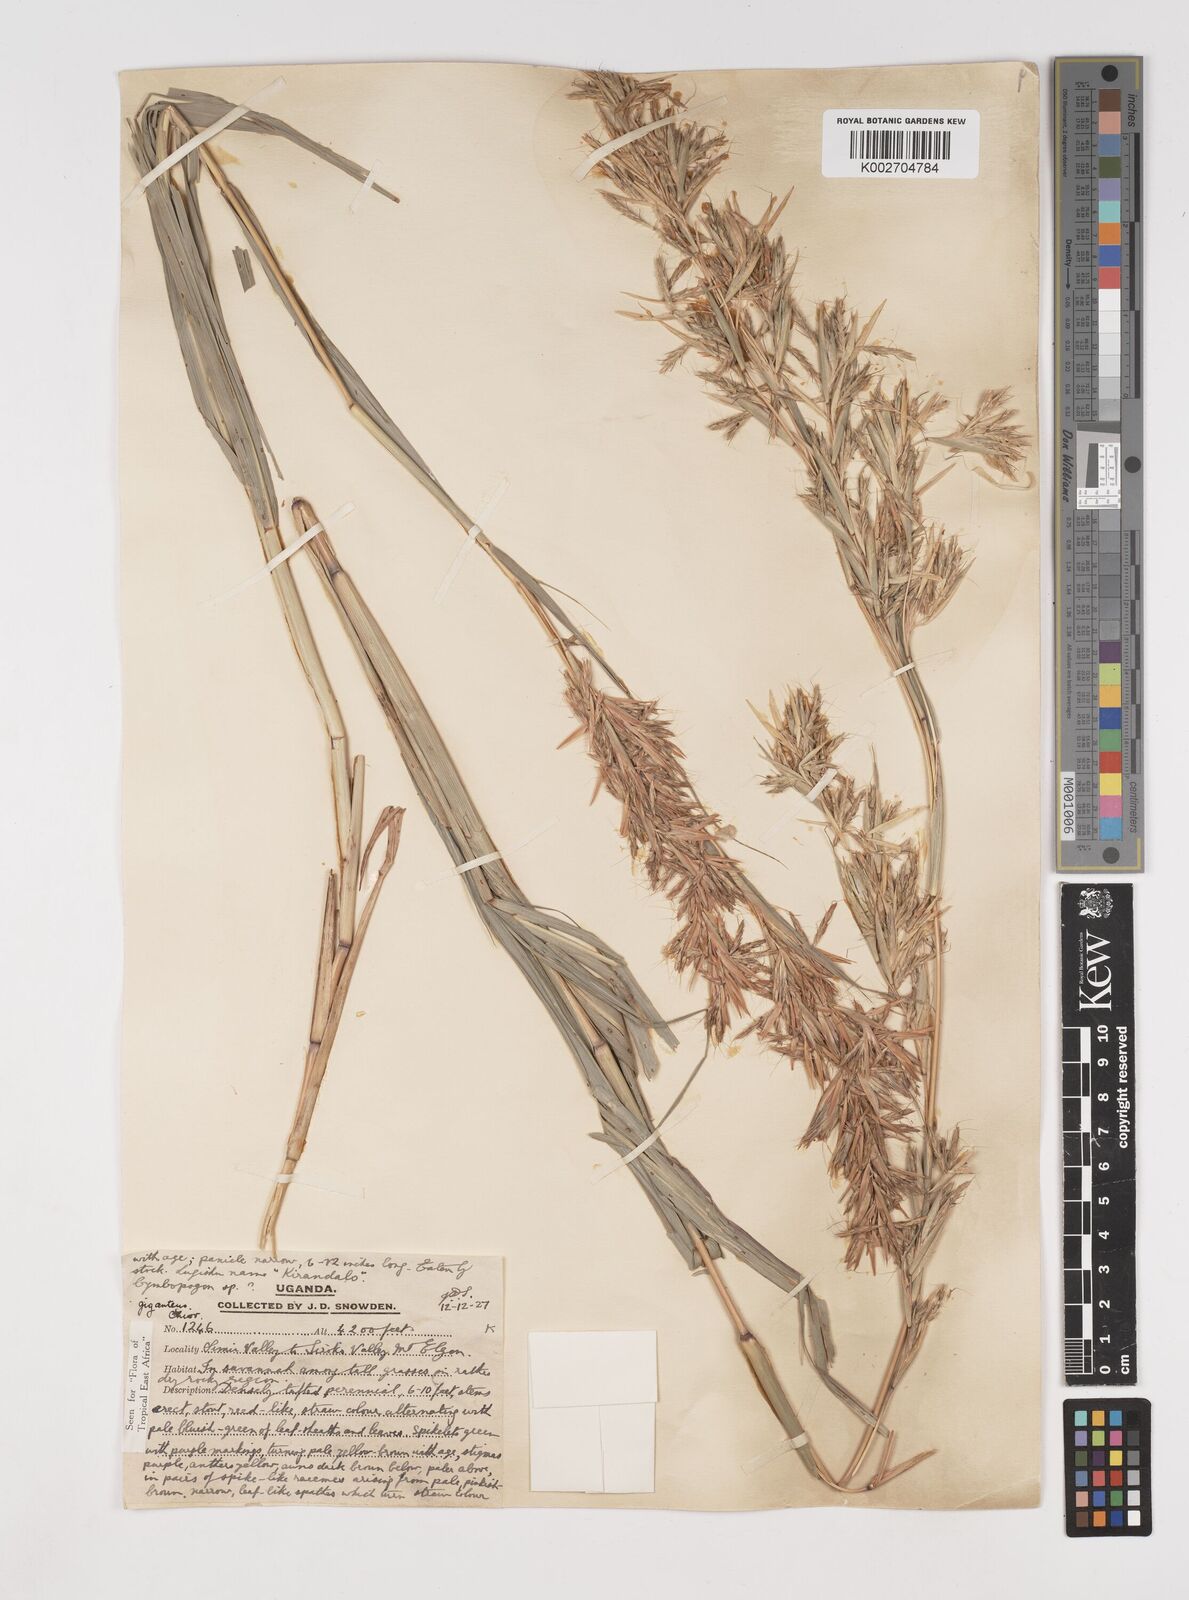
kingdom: Plantae
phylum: Tracheophyta
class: Liliopsida
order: Poales
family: Poaceae
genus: Cymbopogon
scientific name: Cymbopogon giganteus
